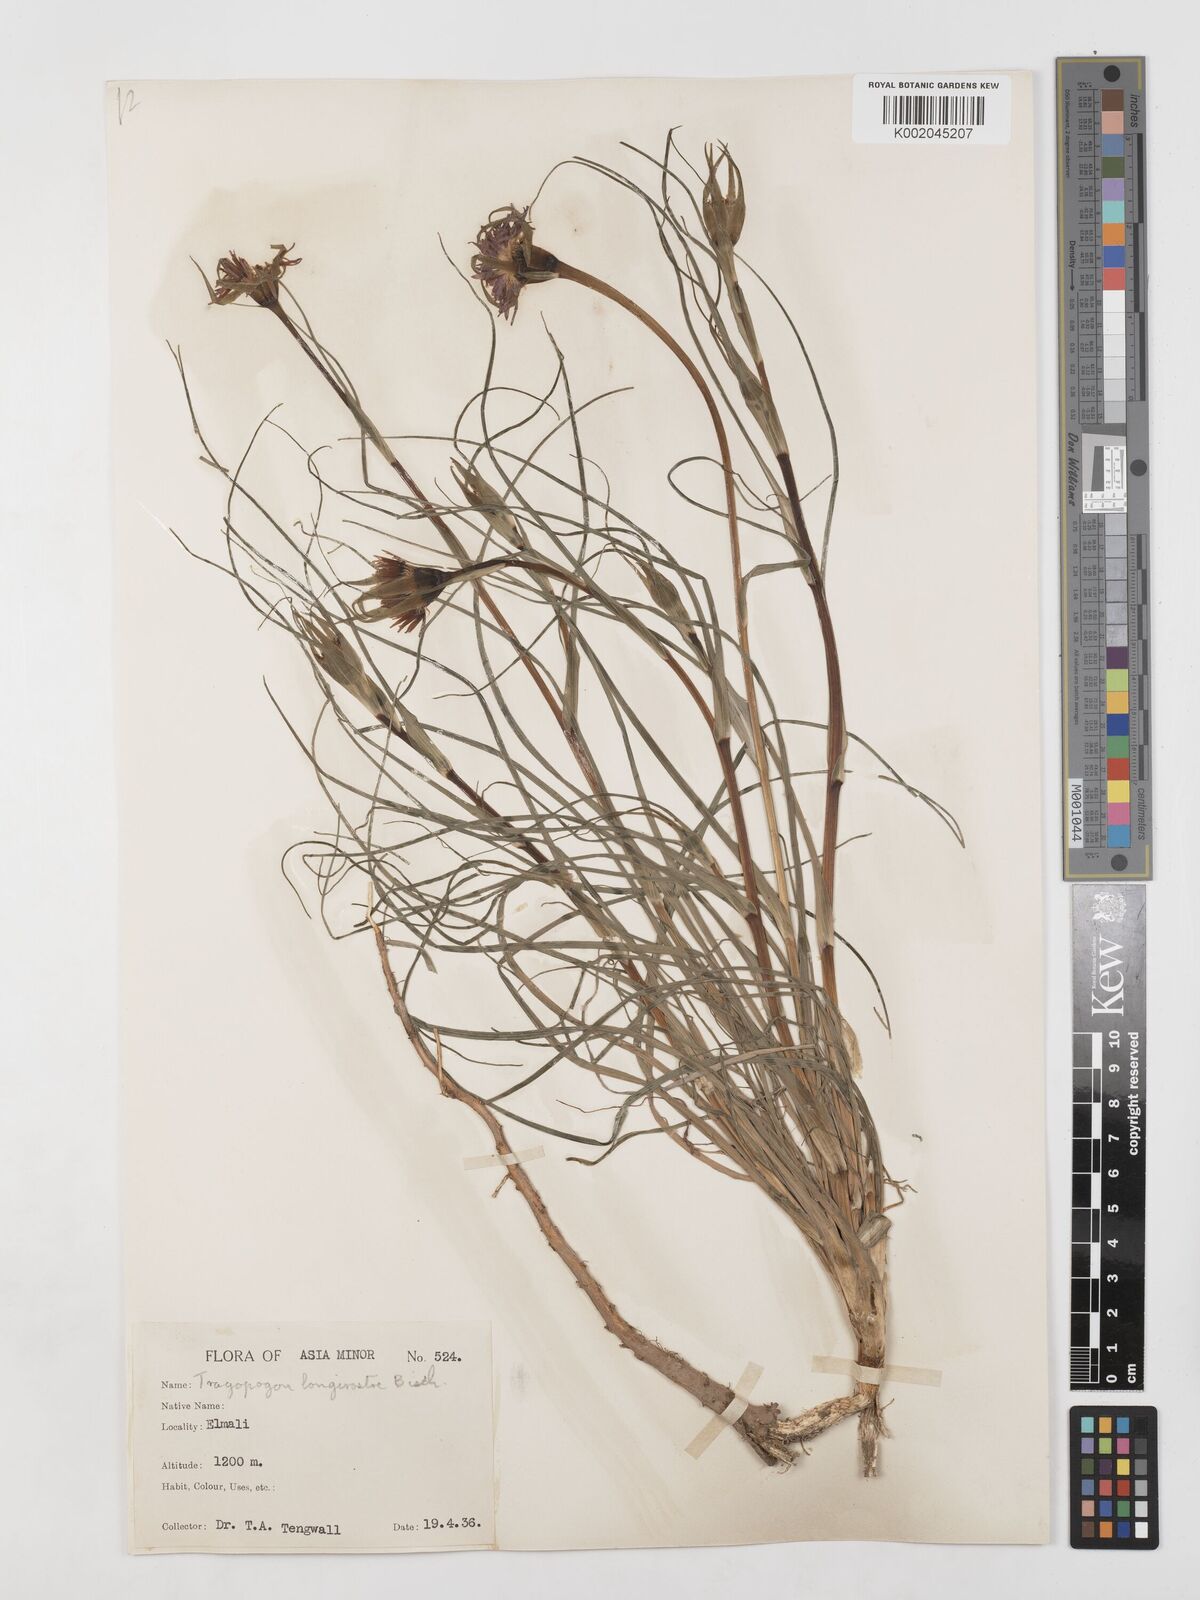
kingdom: Plantae
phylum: Tracheophyta
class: Magnoliopsida
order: Asterales
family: Asteraceae
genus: Tragopogon
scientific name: Tragopogon coelesyriacus
